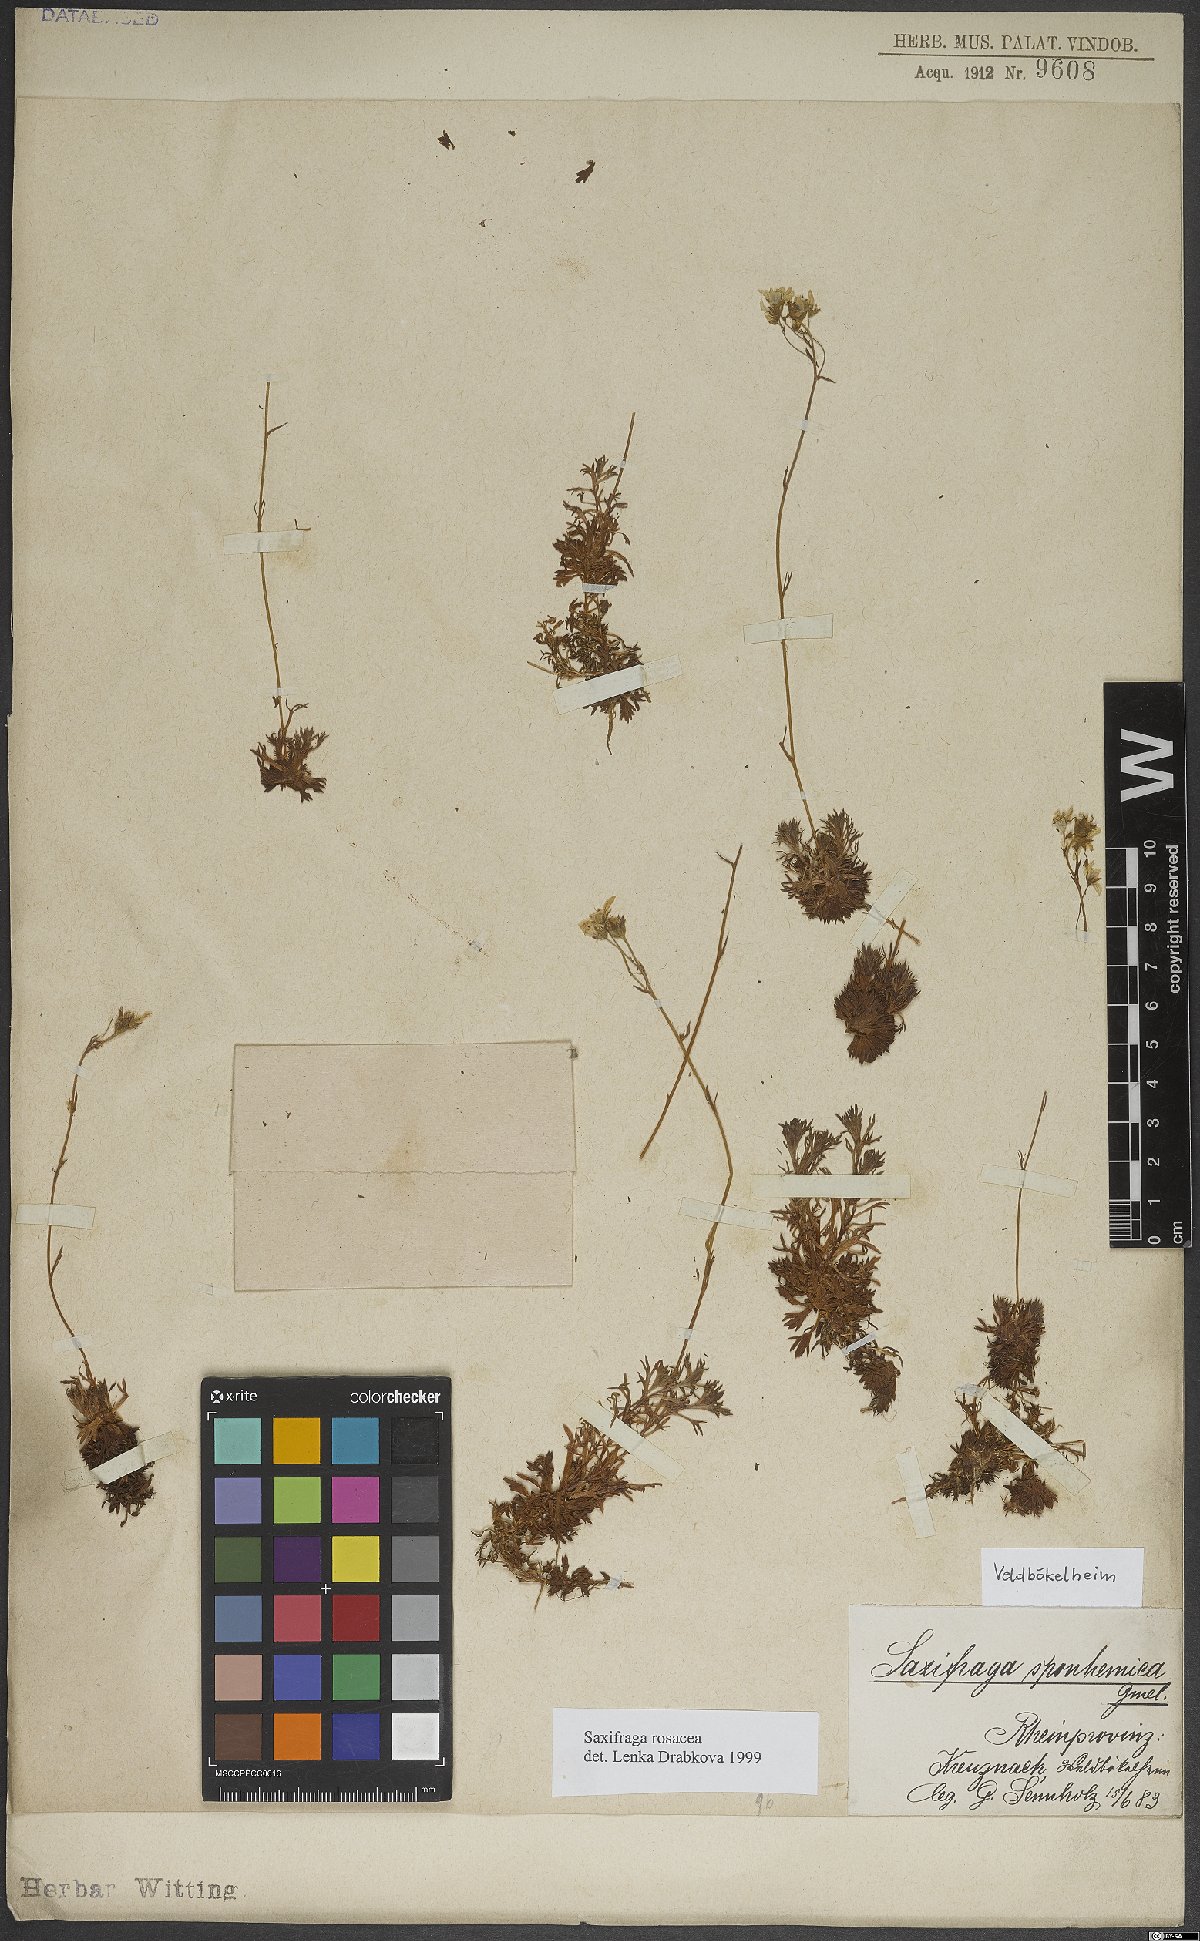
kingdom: Plantae
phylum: Tracheophyta
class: Magnoliopsida
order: Saxifragales
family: Saxifragaceae
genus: Saxifraga
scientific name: Saxifraga rosacea
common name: Irish saxifrage
